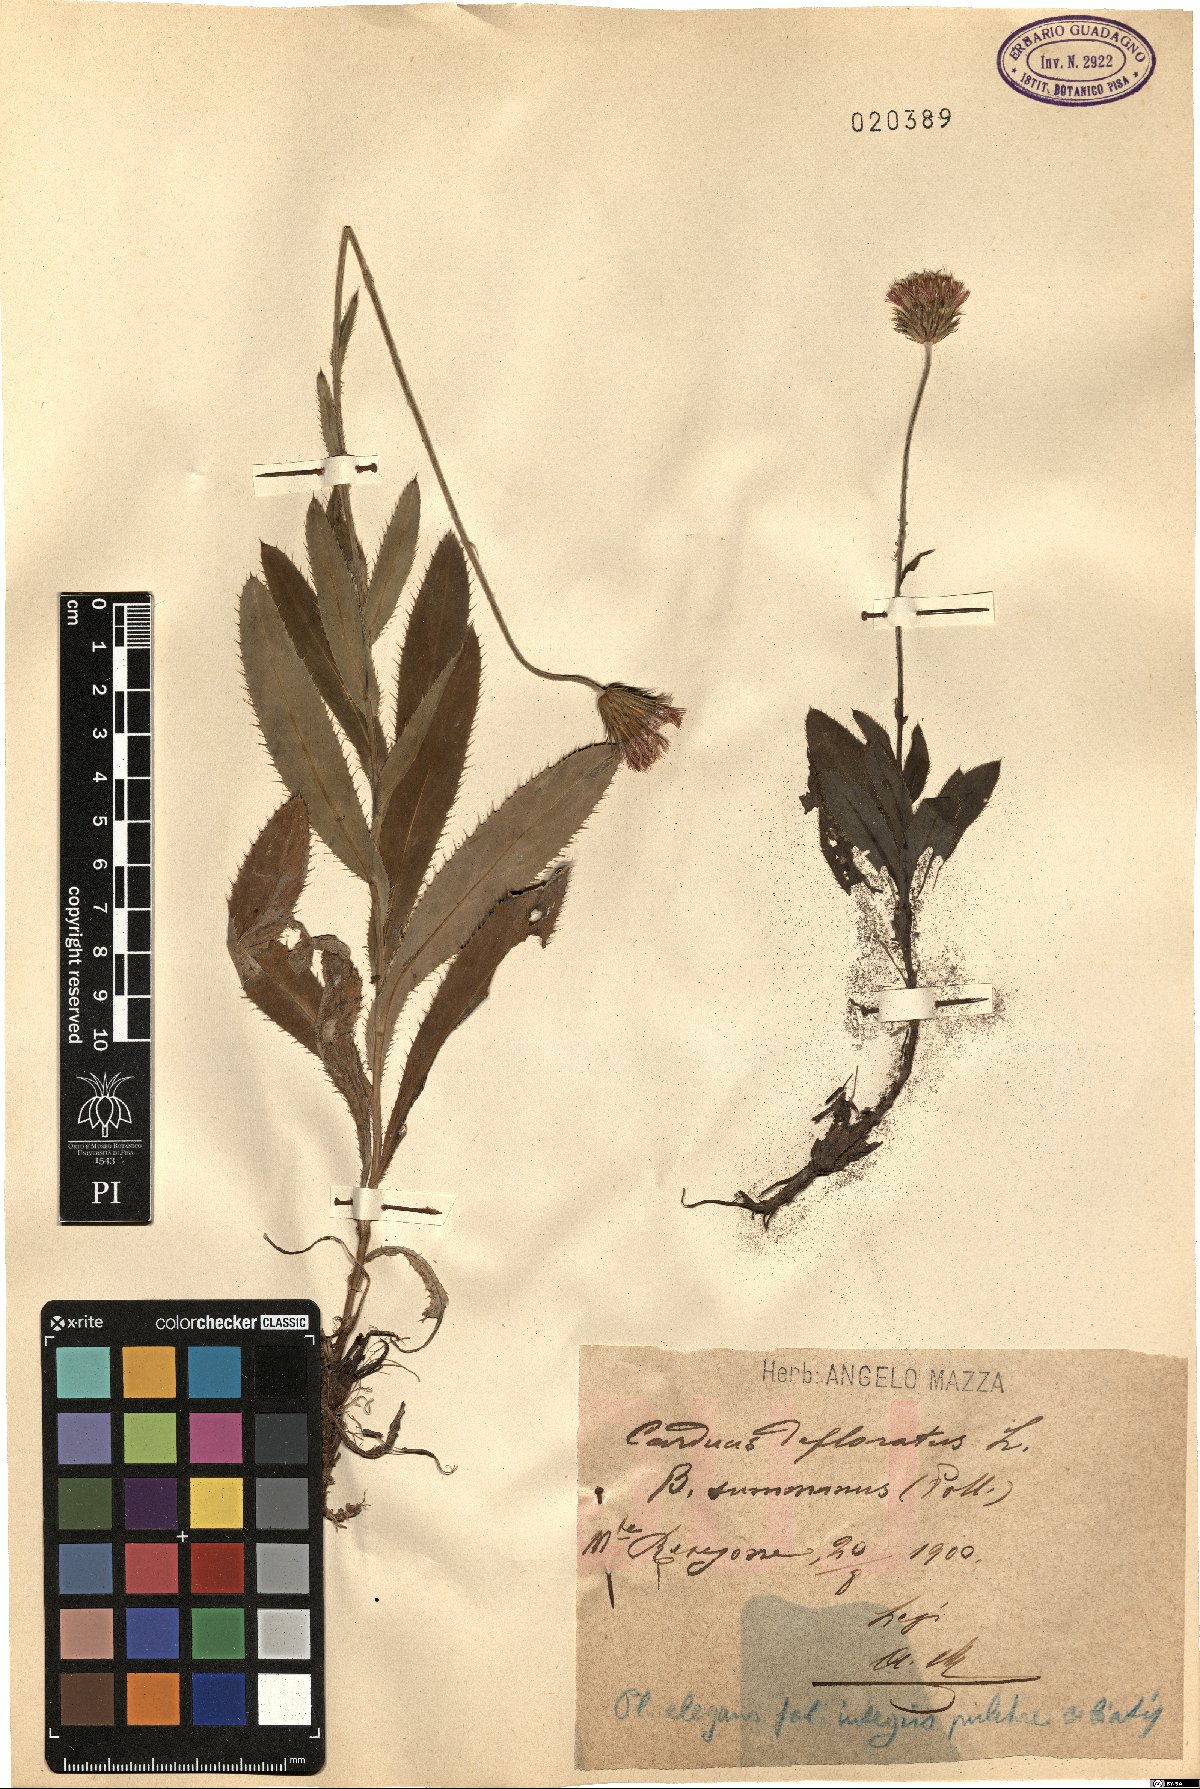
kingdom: Plantae
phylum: Tracheophyta
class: Magnoliopsida
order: Asterales
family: Asteraceae
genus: Carduus
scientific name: Carduus defloratus
